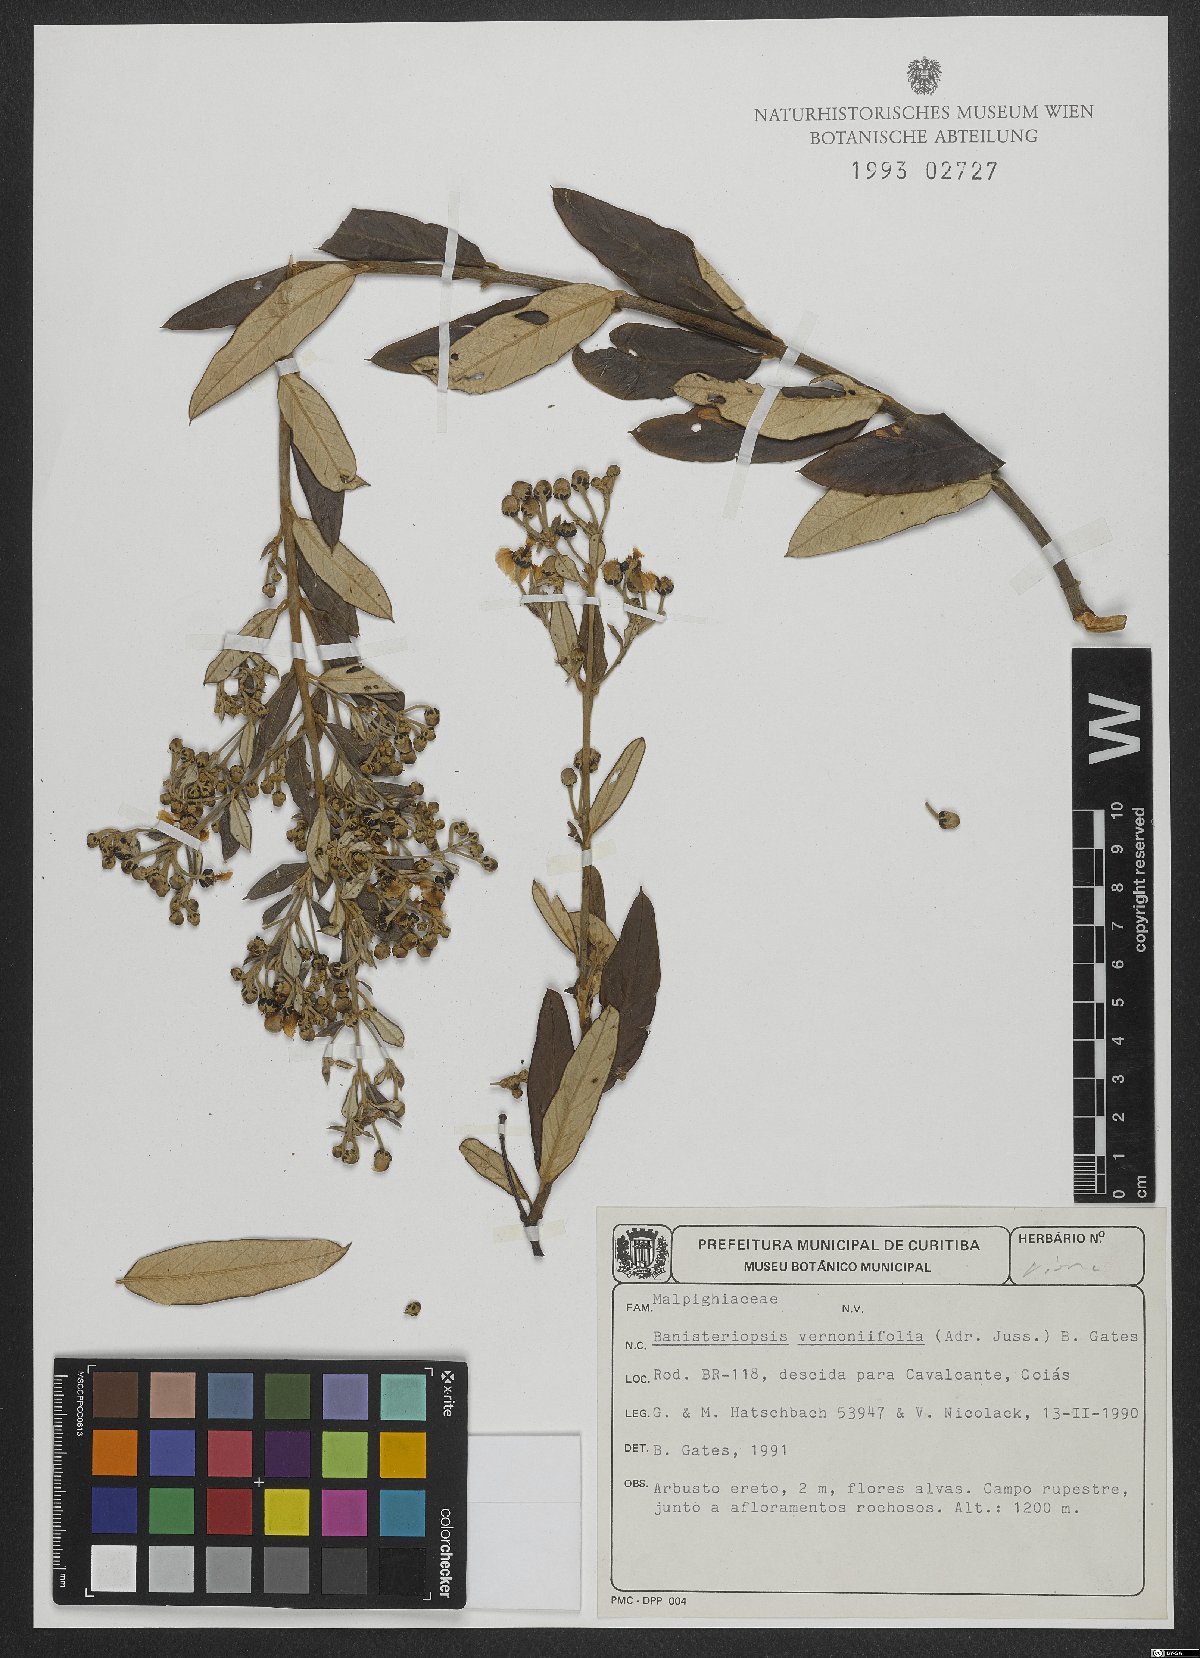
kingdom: Plantae
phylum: Tracheophyta
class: Magnoliopsida
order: Malpighiales
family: Malpighiaceae
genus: Banisteriopsis
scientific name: Banisteriopsis vernoniifolia
